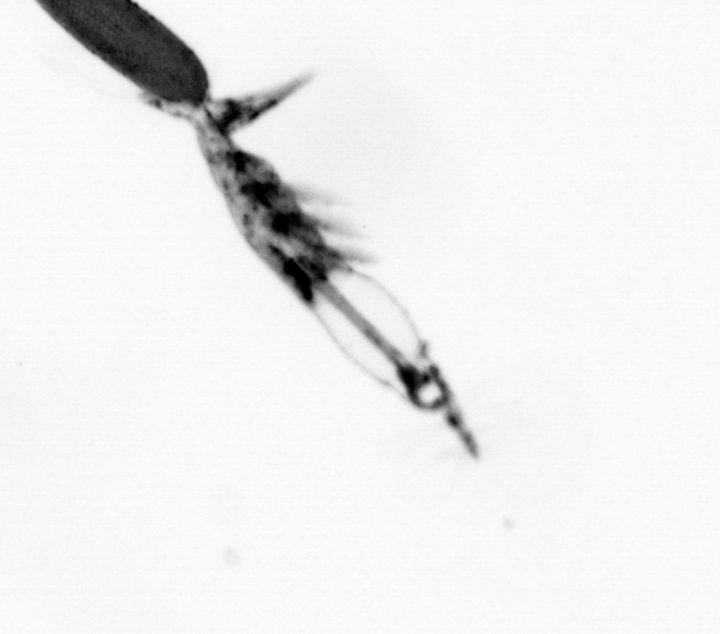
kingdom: Animalia
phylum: Arthropoda
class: Copepoda
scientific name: Copepoda
